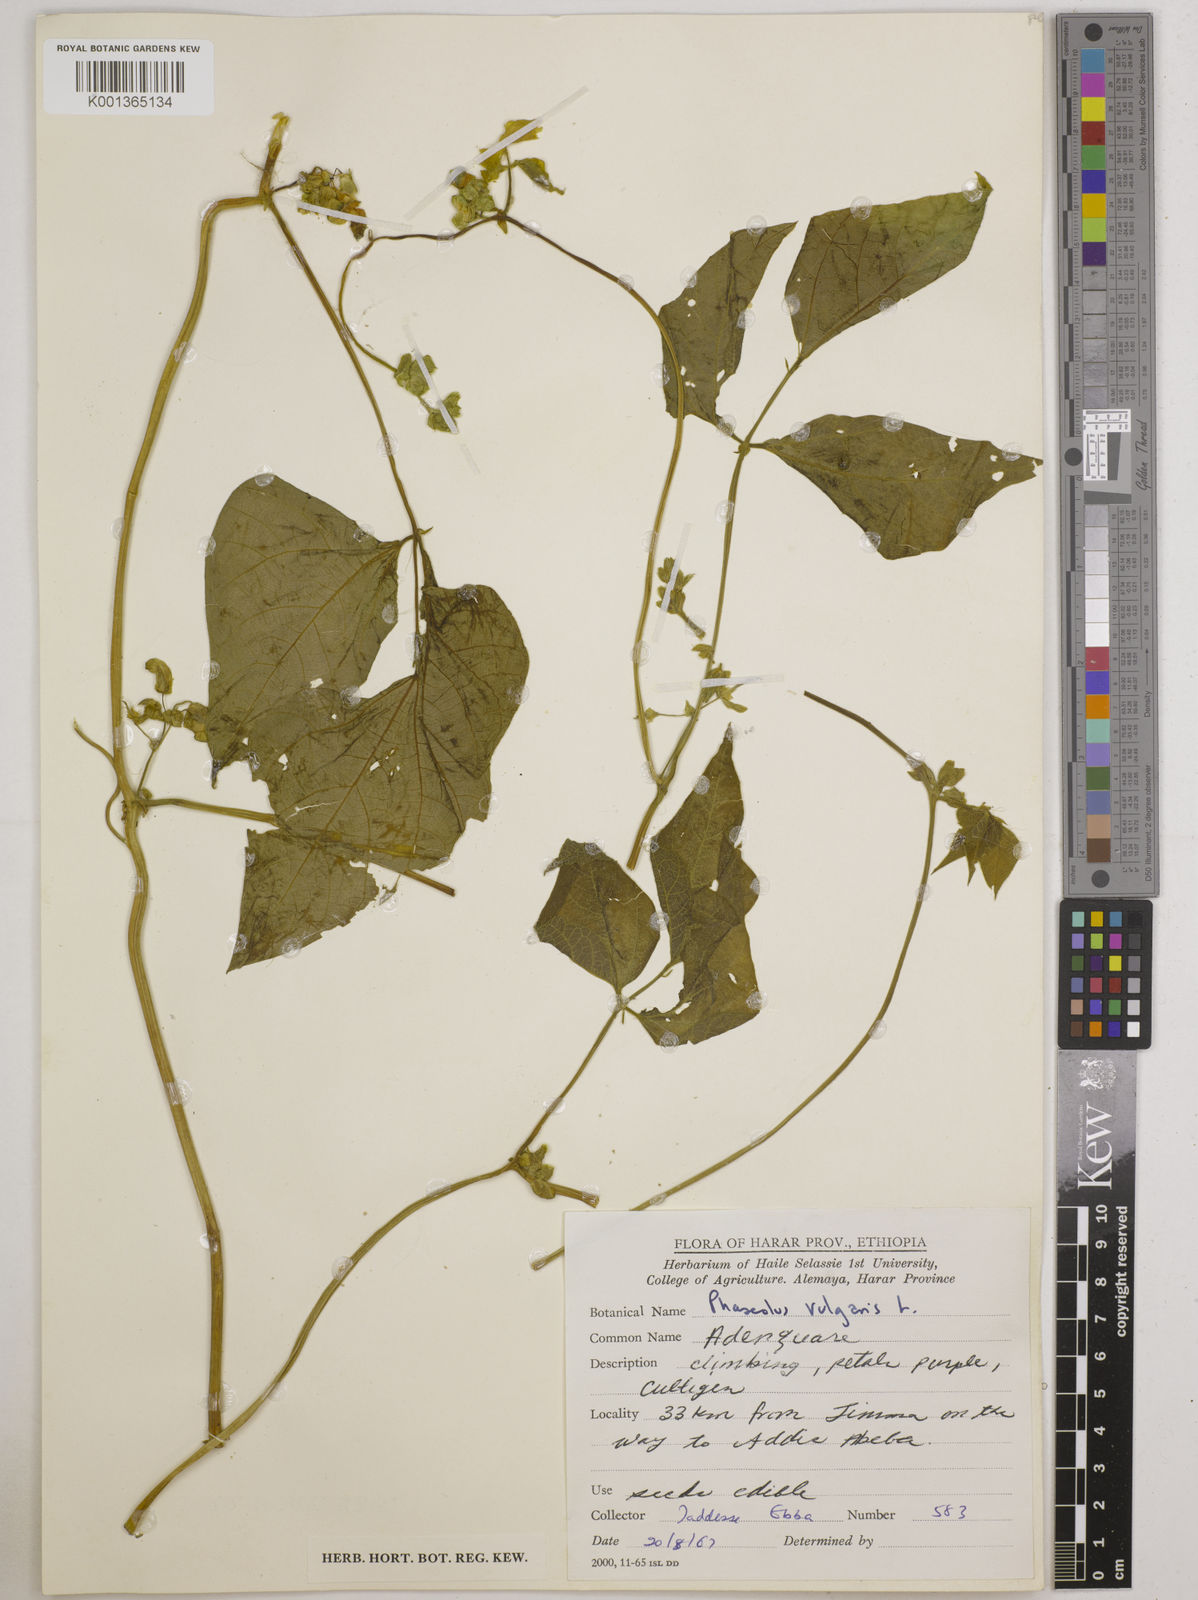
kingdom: Plantae
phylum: Tracheophyta
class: Magnoliopsida
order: Fabales
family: Fabaceae
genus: Phaseolus
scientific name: Phaseolus vulgaris
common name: Bean
